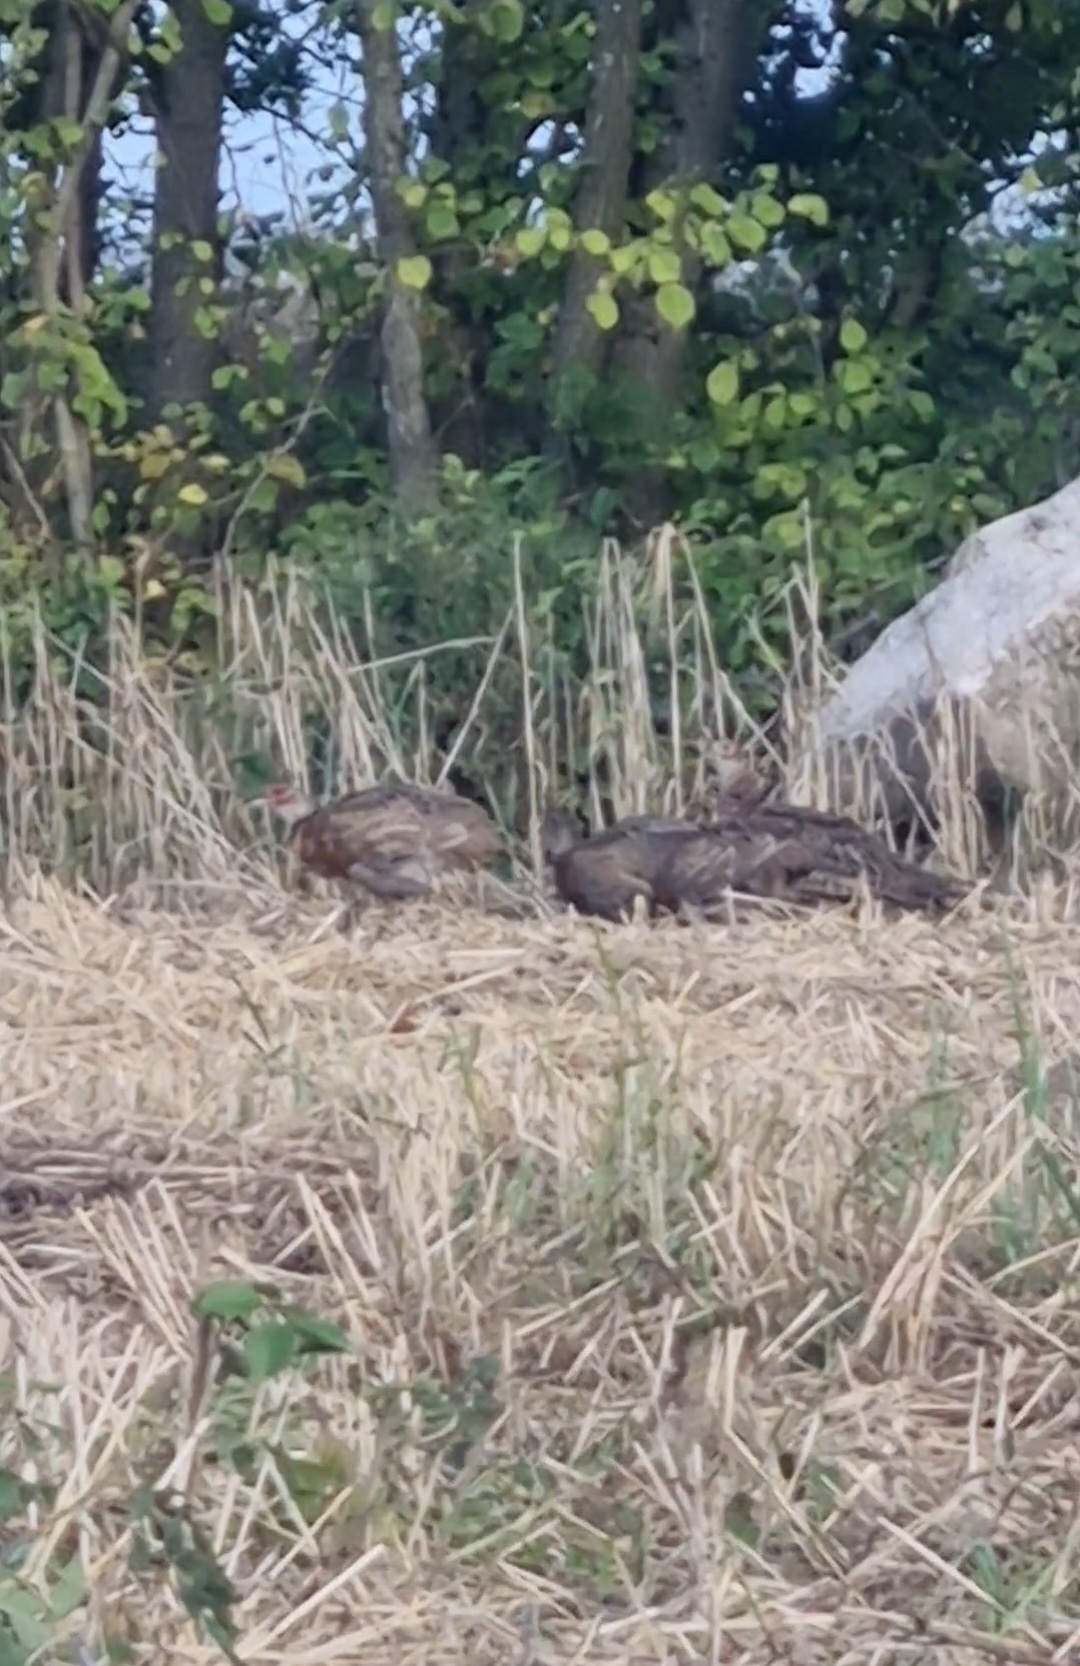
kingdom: Animalia
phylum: Chordata
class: Aves
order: Galliformes
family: Phasianidae
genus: Phasianus
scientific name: Phasianus colchicus
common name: Fasan
